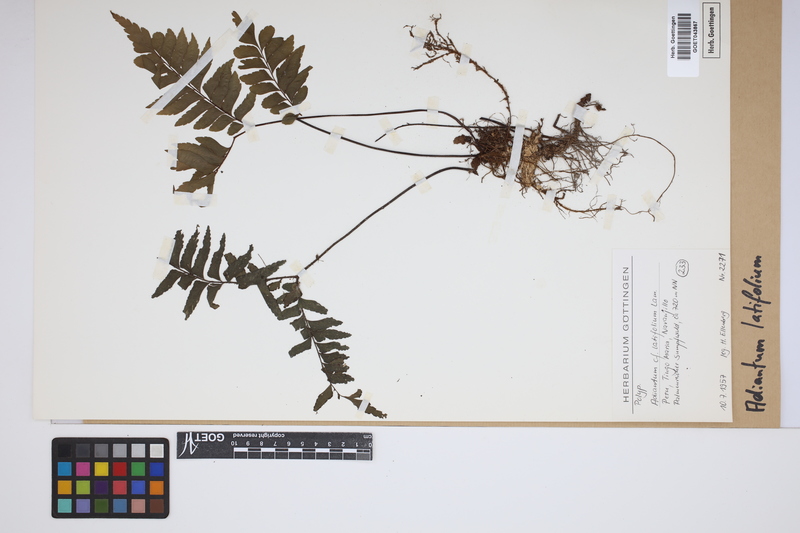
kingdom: Plantae
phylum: Tracheophyta
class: Polypodiopsida
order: Polypodiales
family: Pteridaceae
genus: Adiantum
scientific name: Adiantum latifolium
